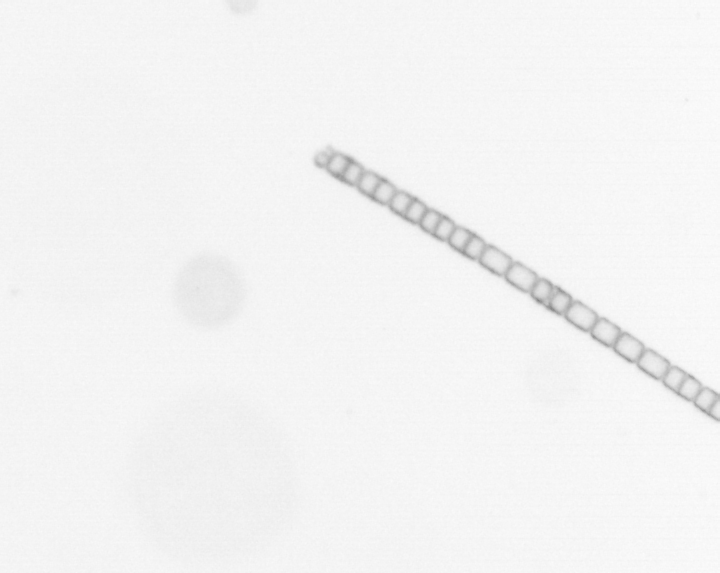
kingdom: Chromista
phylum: Ochrophyta
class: Bacillariophyceae
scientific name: Bacillariophyceae
